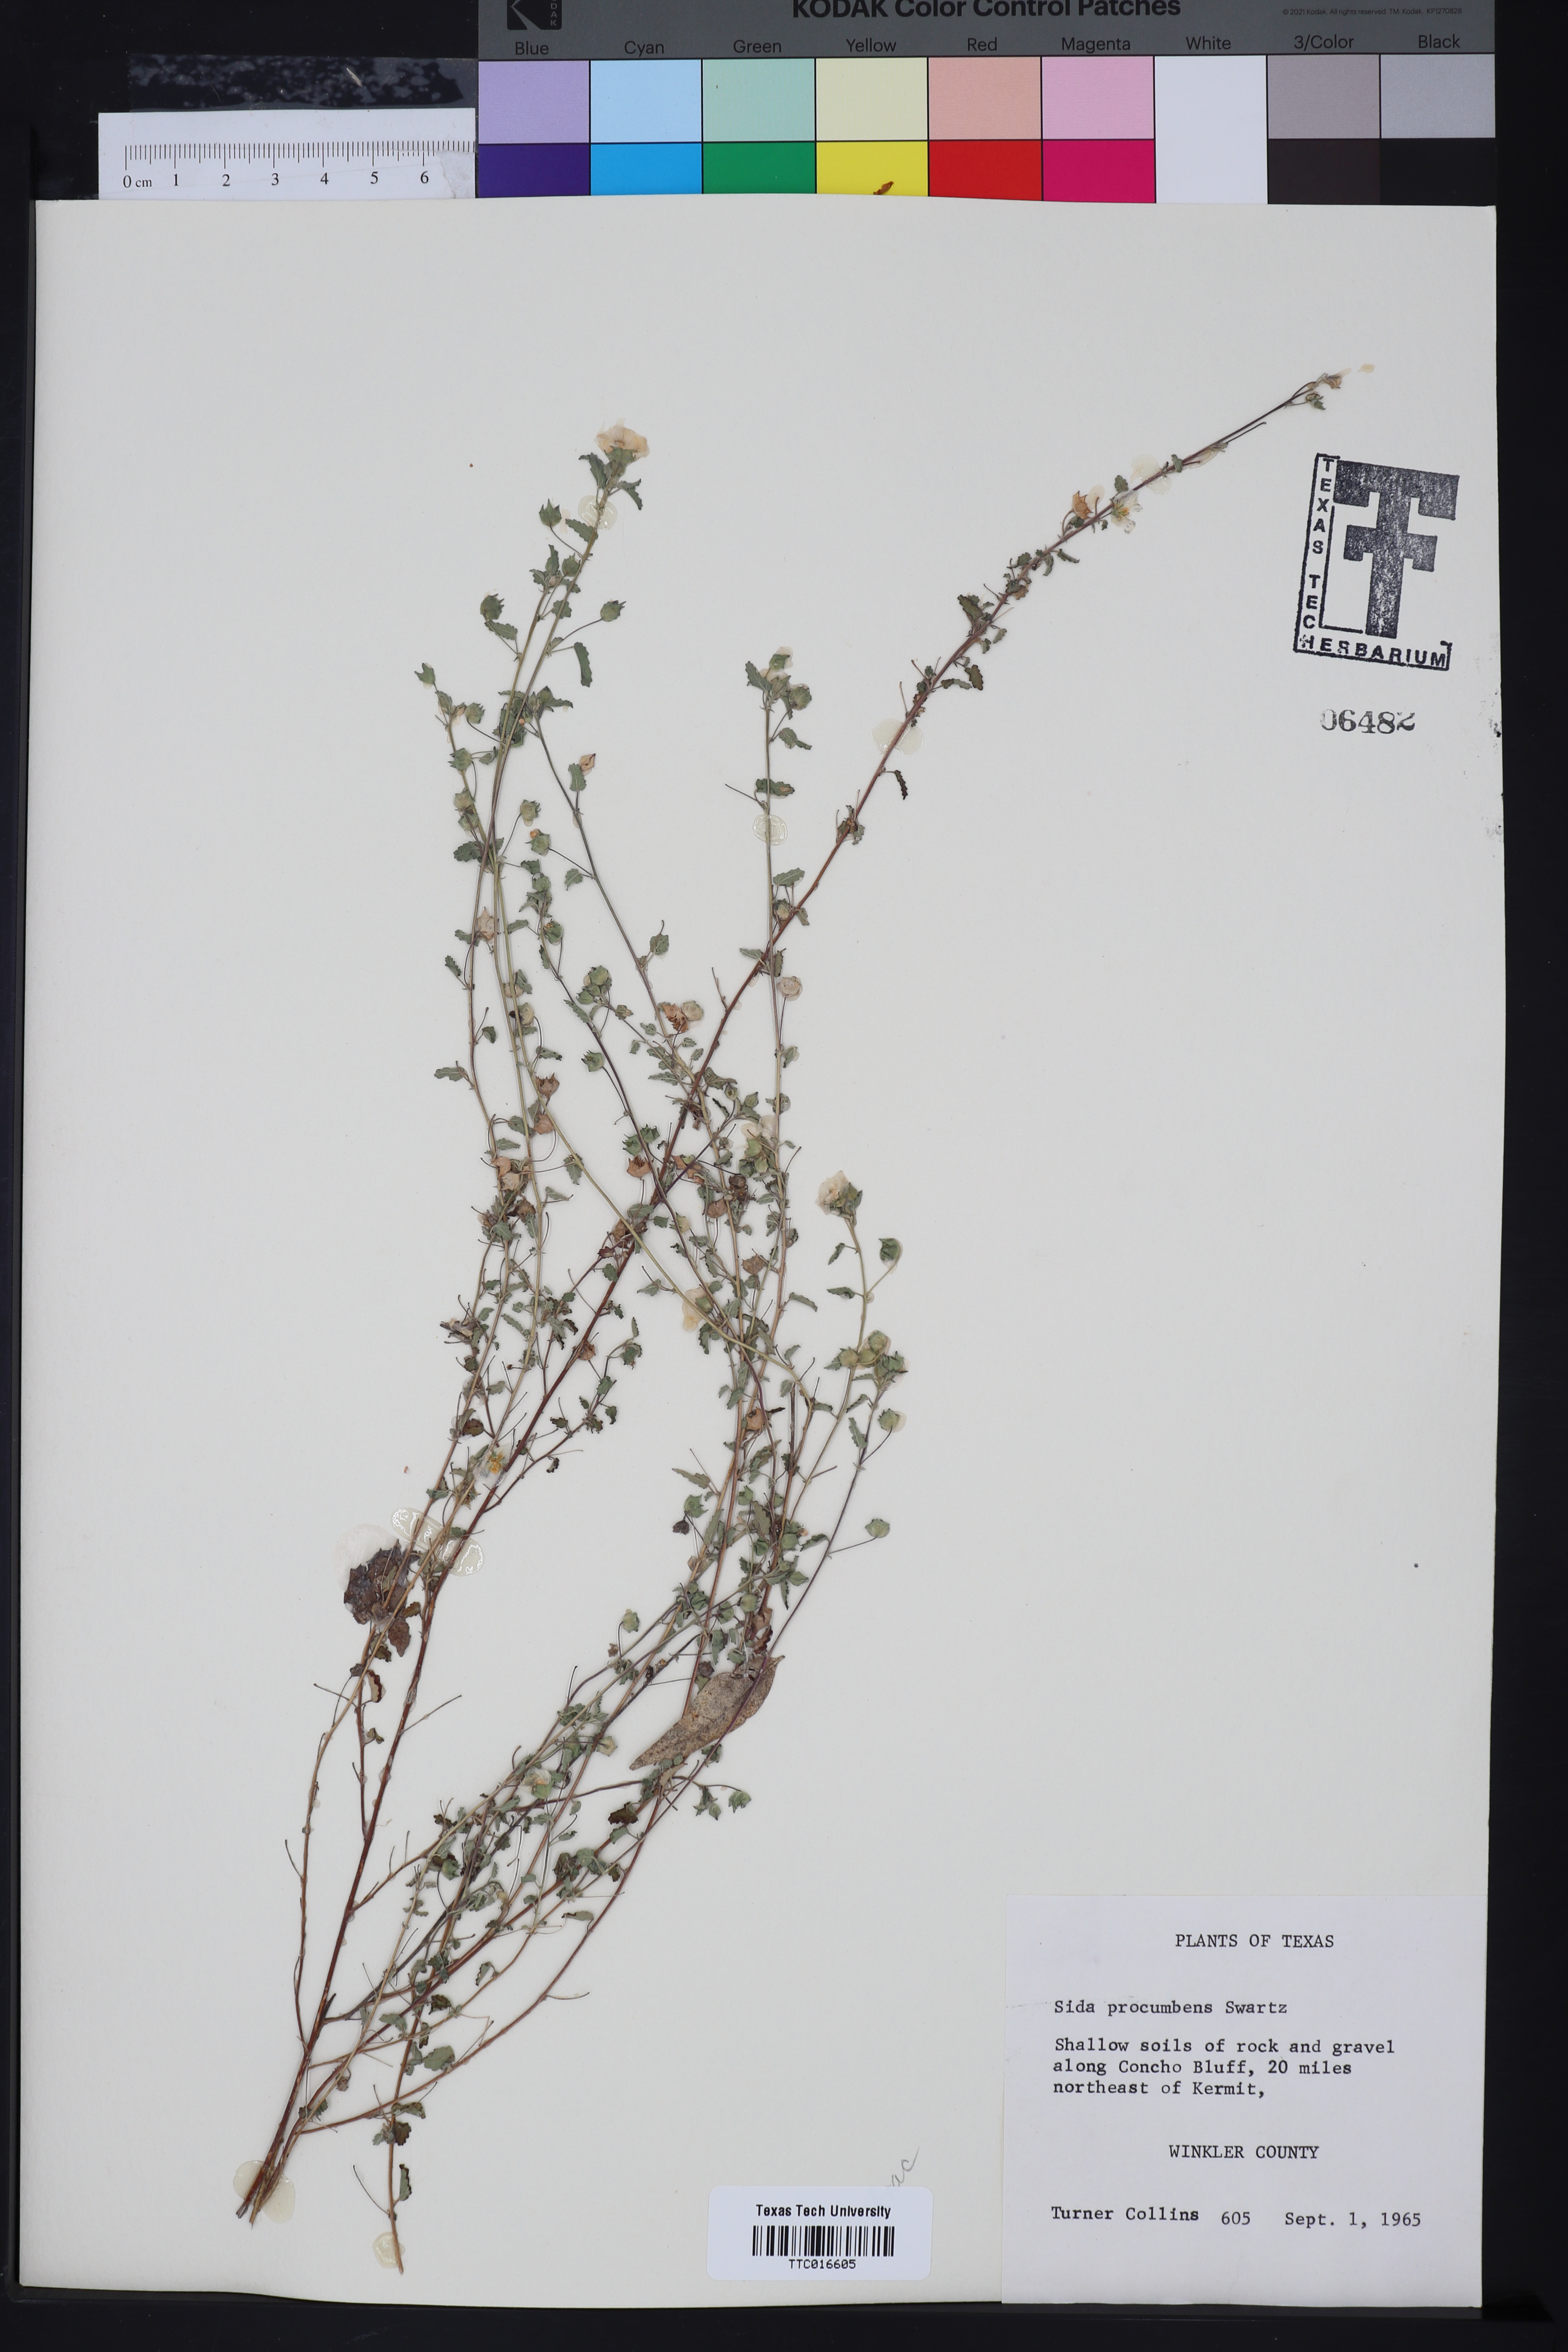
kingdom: Plantae
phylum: Tracheophyta
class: Magnoliopsida
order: Malvales
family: Malvaceae
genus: Sida
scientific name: Sida abutilifolia
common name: Spreading fanpetals
